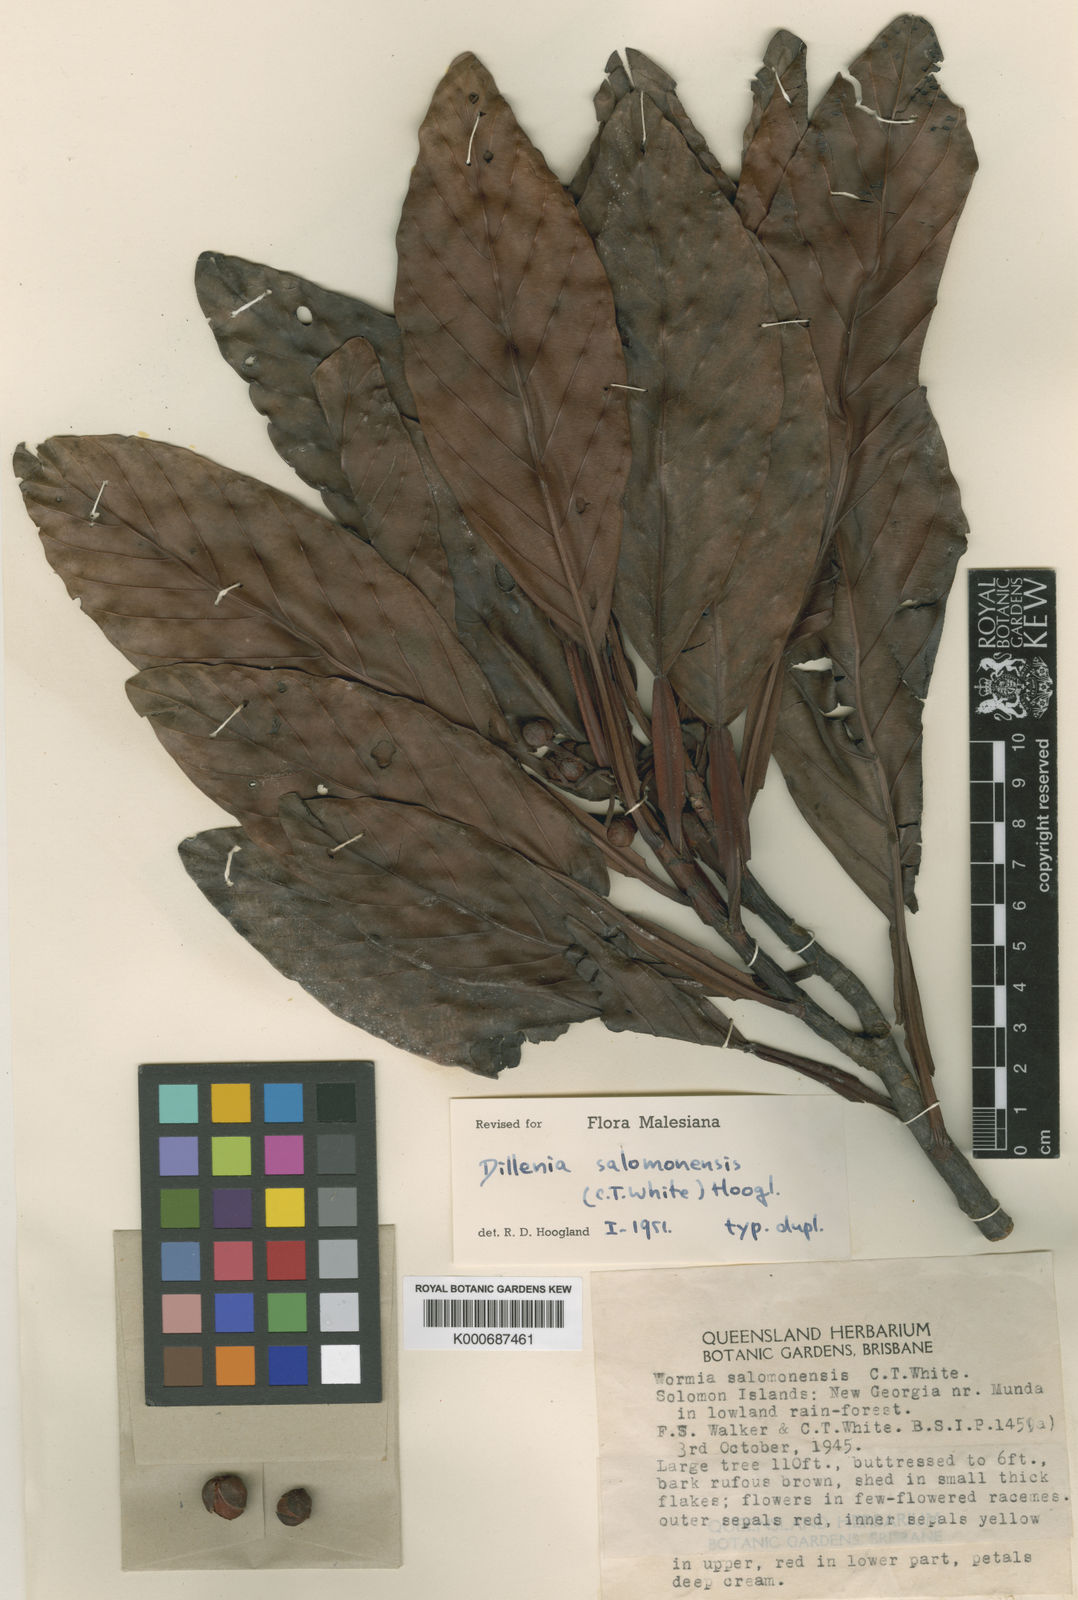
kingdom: Plantae
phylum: Tracheophyta
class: Magnoliopsida
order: Dilleniales
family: Dilleniaceae
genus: Dillenia
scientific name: Dillenia salomonensis
